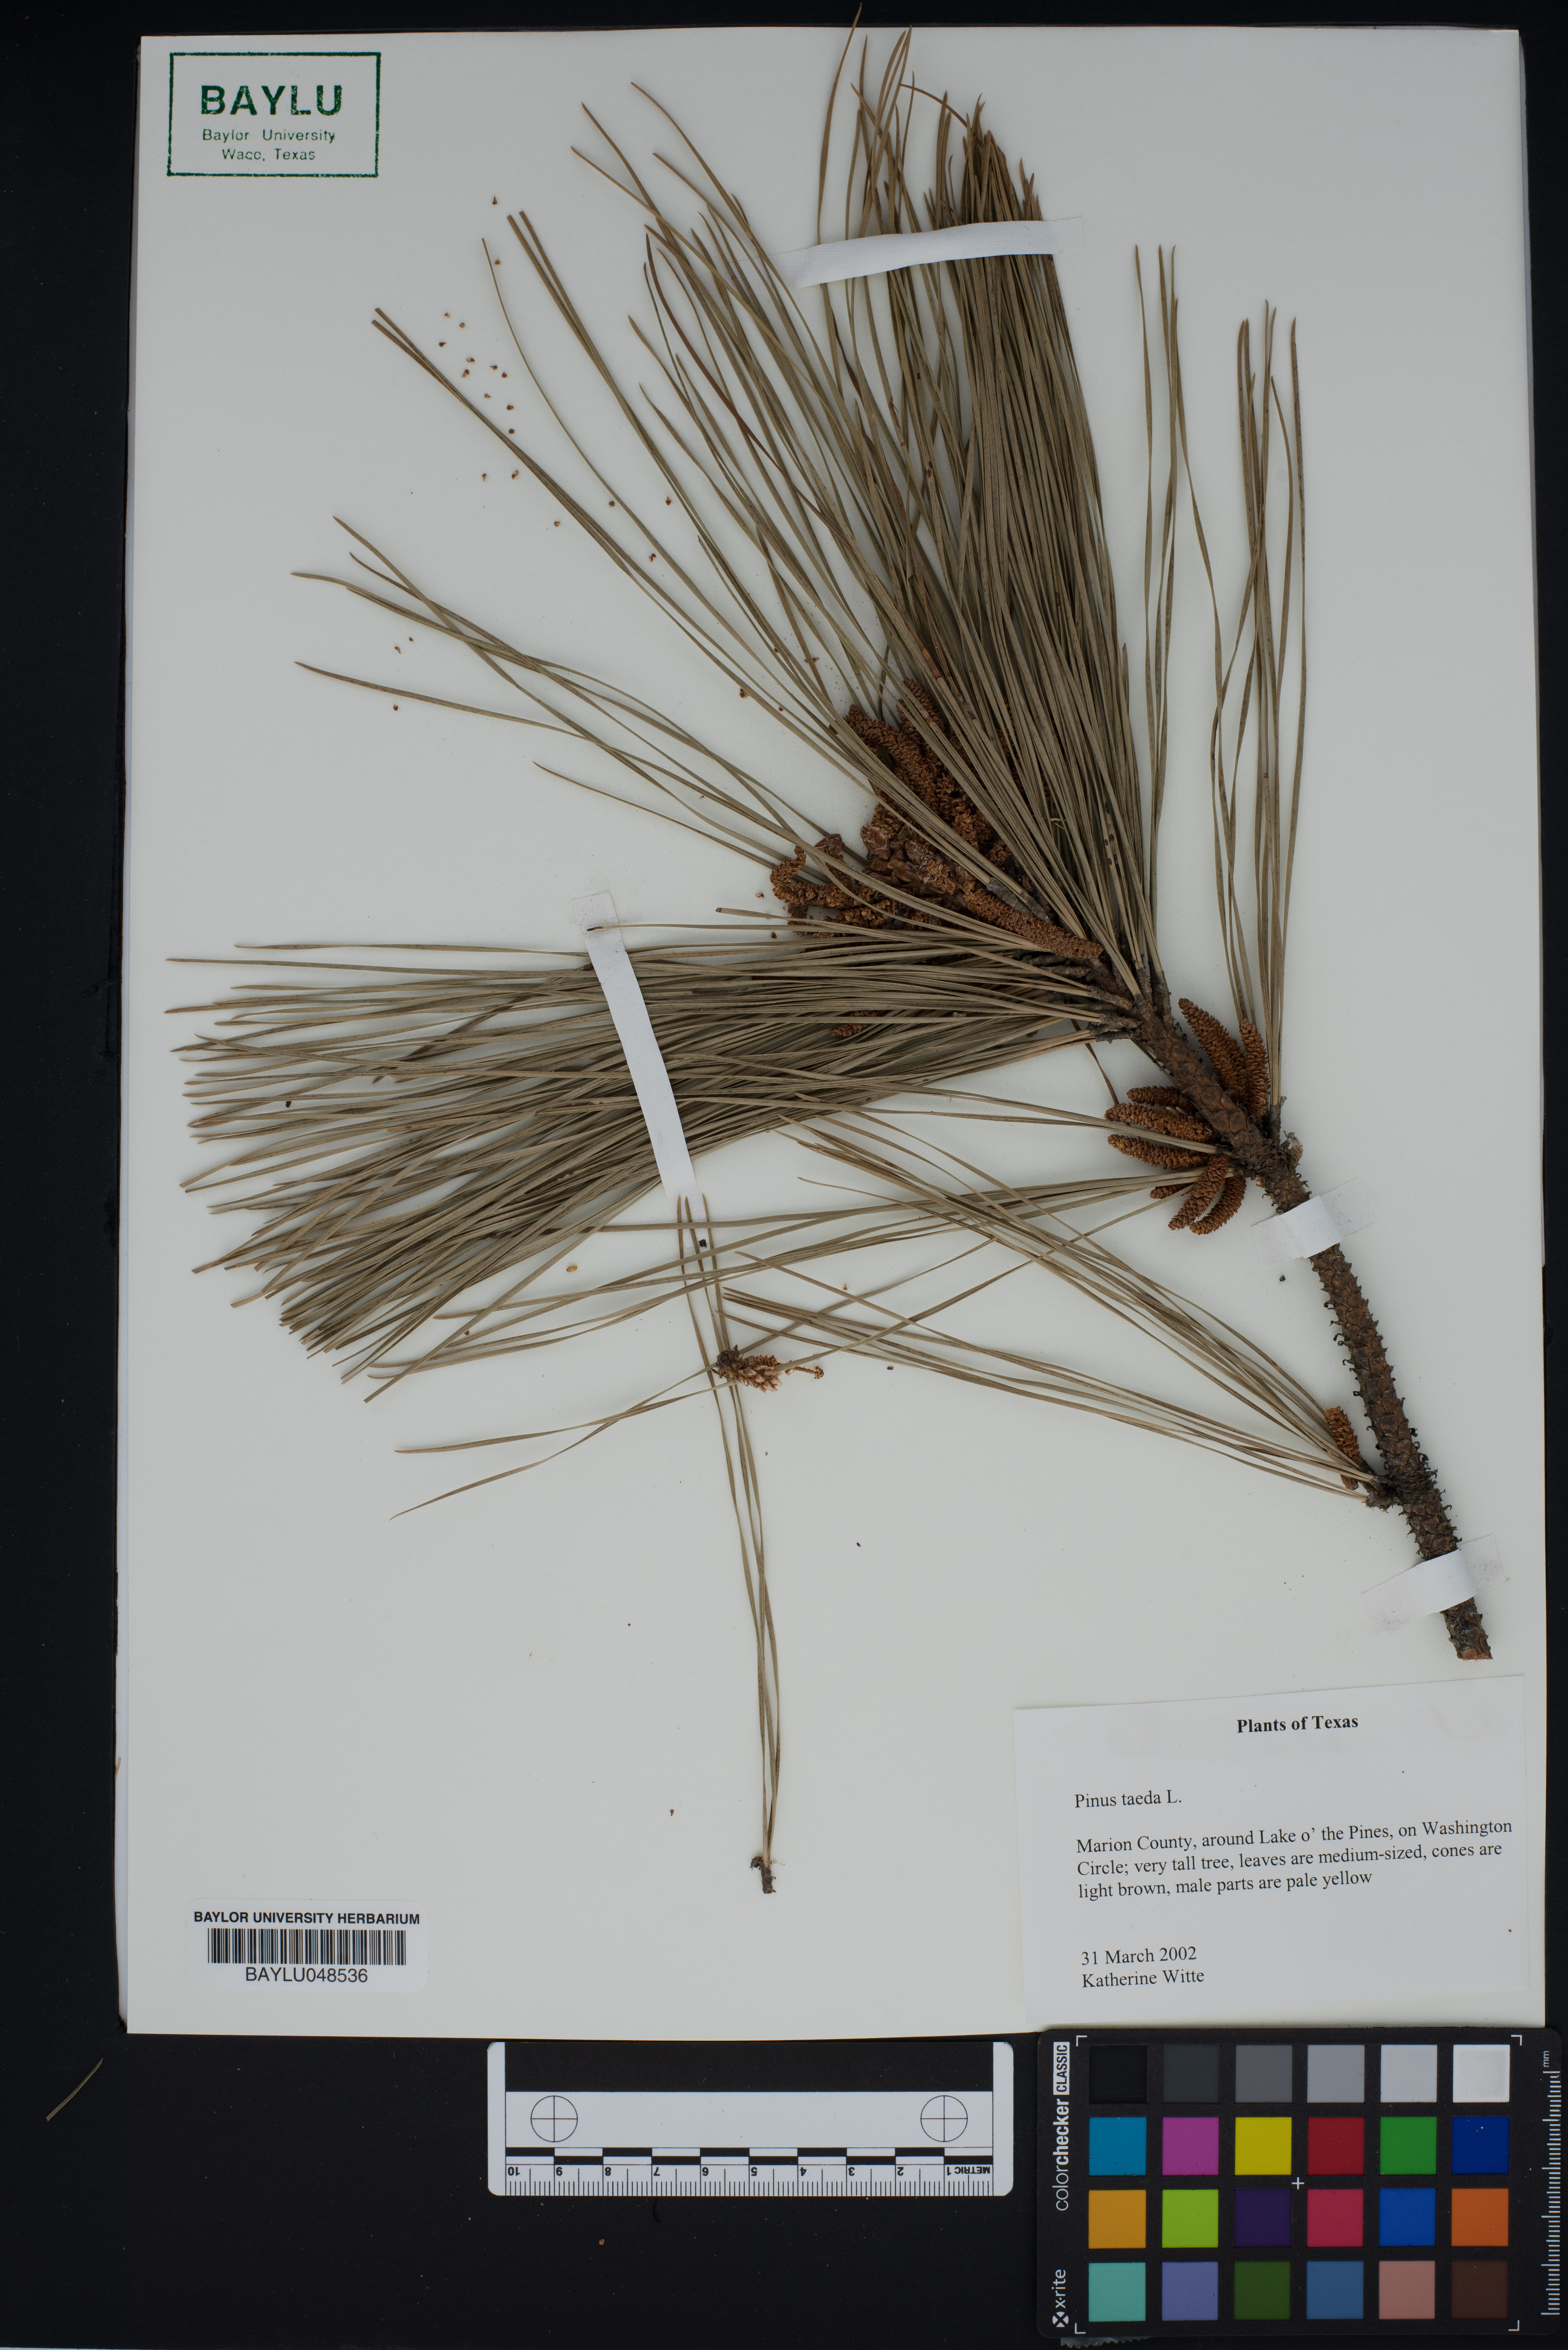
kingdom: Plantae
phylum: Tracheophyta
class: Pinopsida
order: Pinales
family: Pinaceae
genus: Pinus
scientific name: Pinus taeda
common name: Loblolly pine
